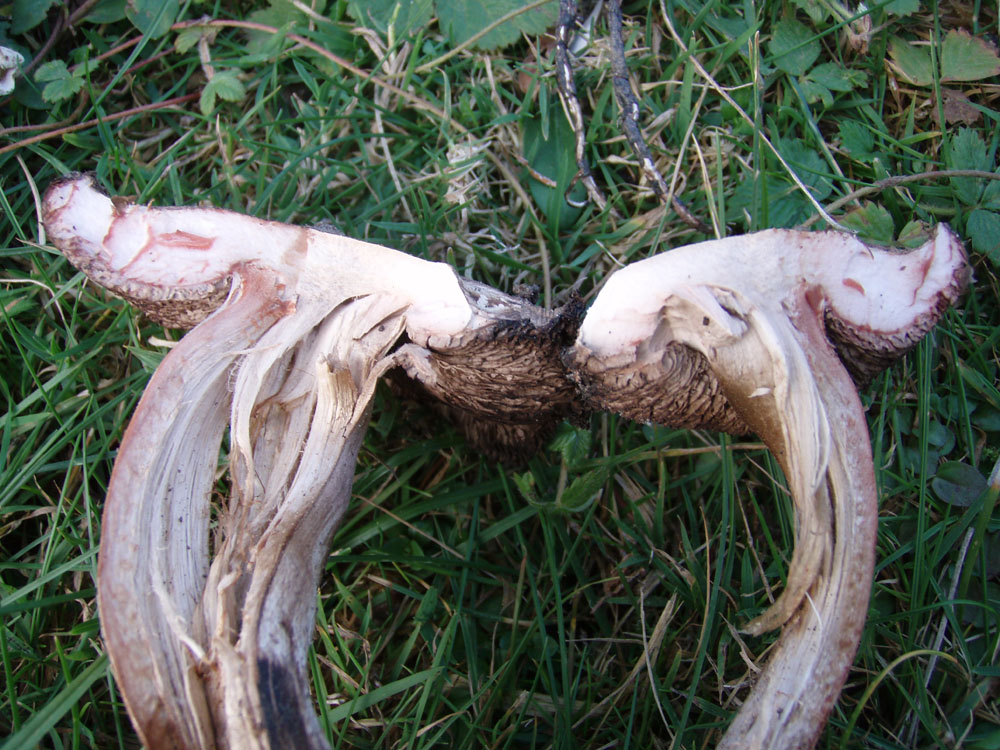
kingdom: Fungi
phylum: Basidiomycota
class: Agaricomycetes
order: Agaricales
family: Agaricaceae
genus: Agaricus
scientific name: Agaricus sylvaticus
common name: lille blod-champignon
